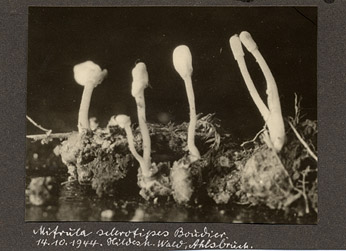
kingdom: Fungi
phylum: Ascomycota
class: Leotiomycetes
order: Helotiales
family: Helotiaceae
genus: Episclerotium
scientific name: Episclerotium sclerotipus
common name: Burning beacon
